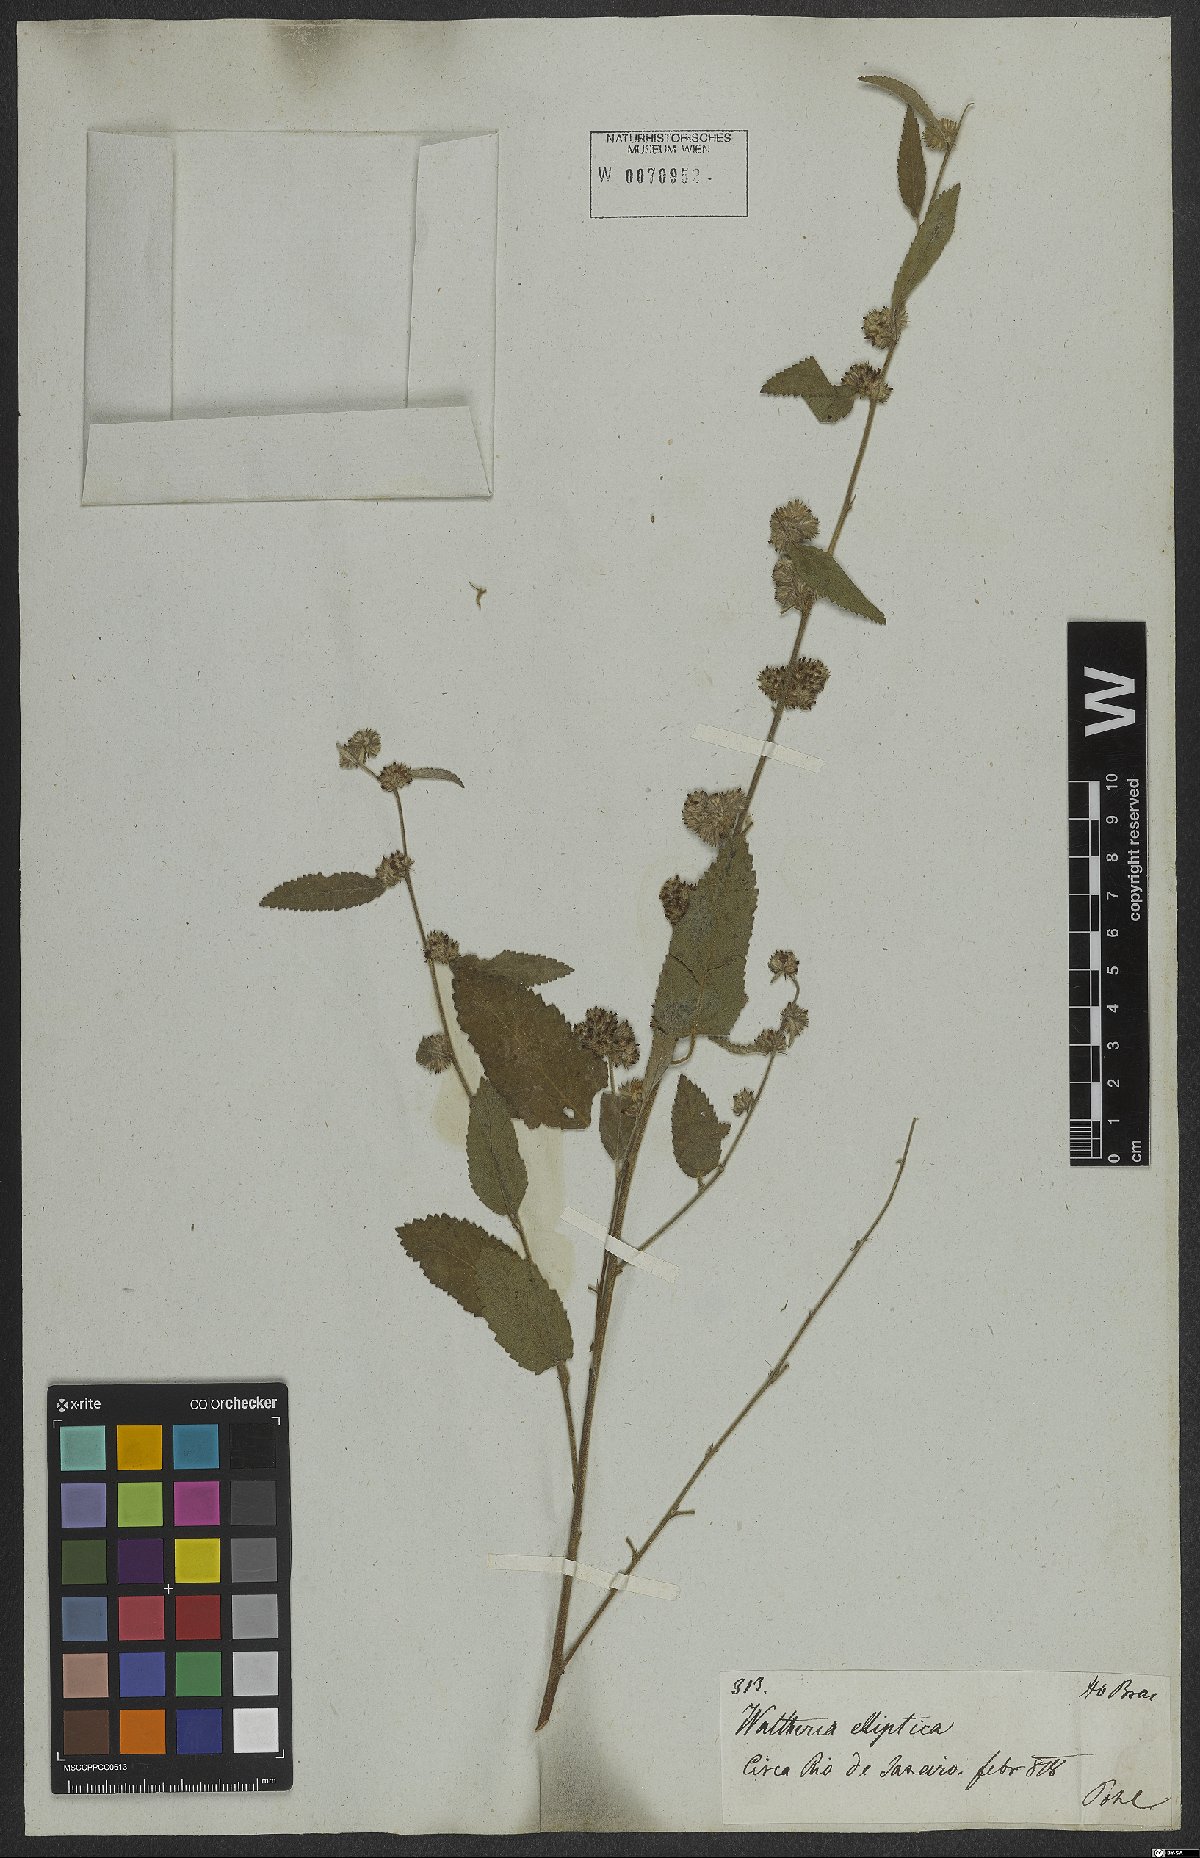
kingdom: Plantae
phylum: Tracheophyta
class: Magnoliopsida
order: Malvales
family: Malvaceae
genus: Waltheria
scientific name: Waltheria indica
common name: Leather-coat
